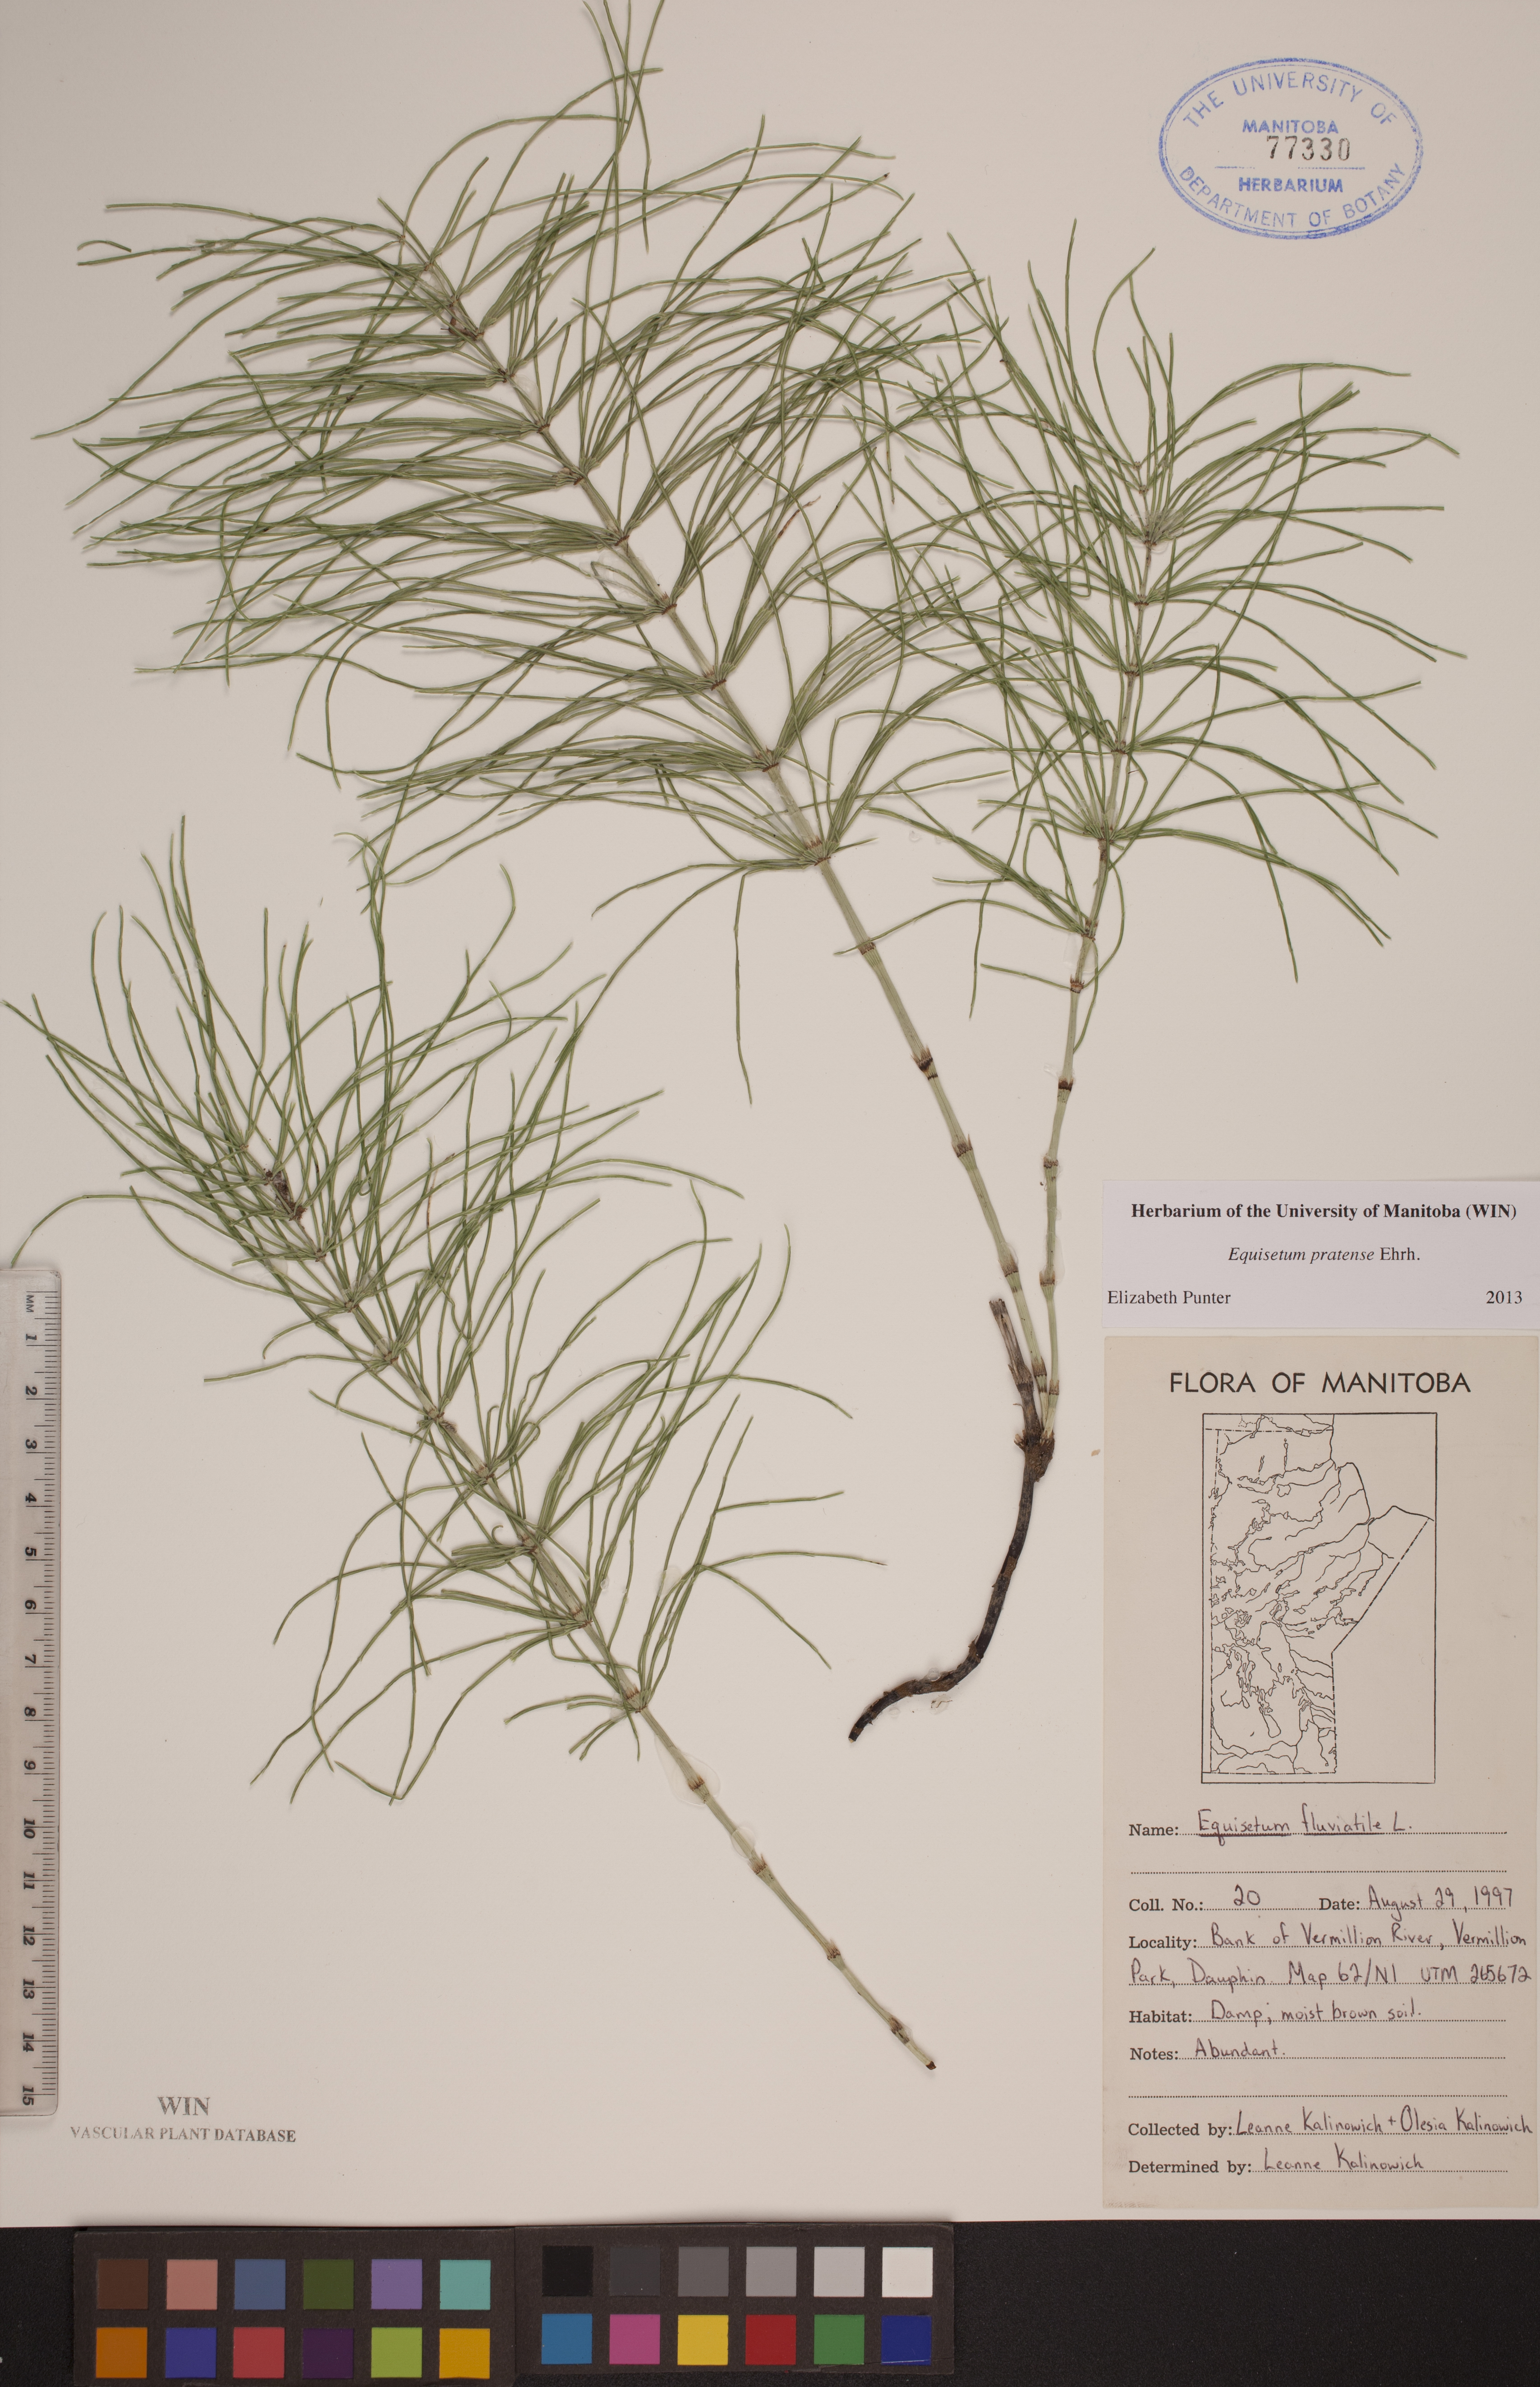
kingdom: Plantae
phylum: Tracheophyta
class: Polypodiopsida
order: Equisetales
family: Equisetaceae
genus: Equisetum
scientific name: Equisetum pratense
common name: Meadow horsetail
